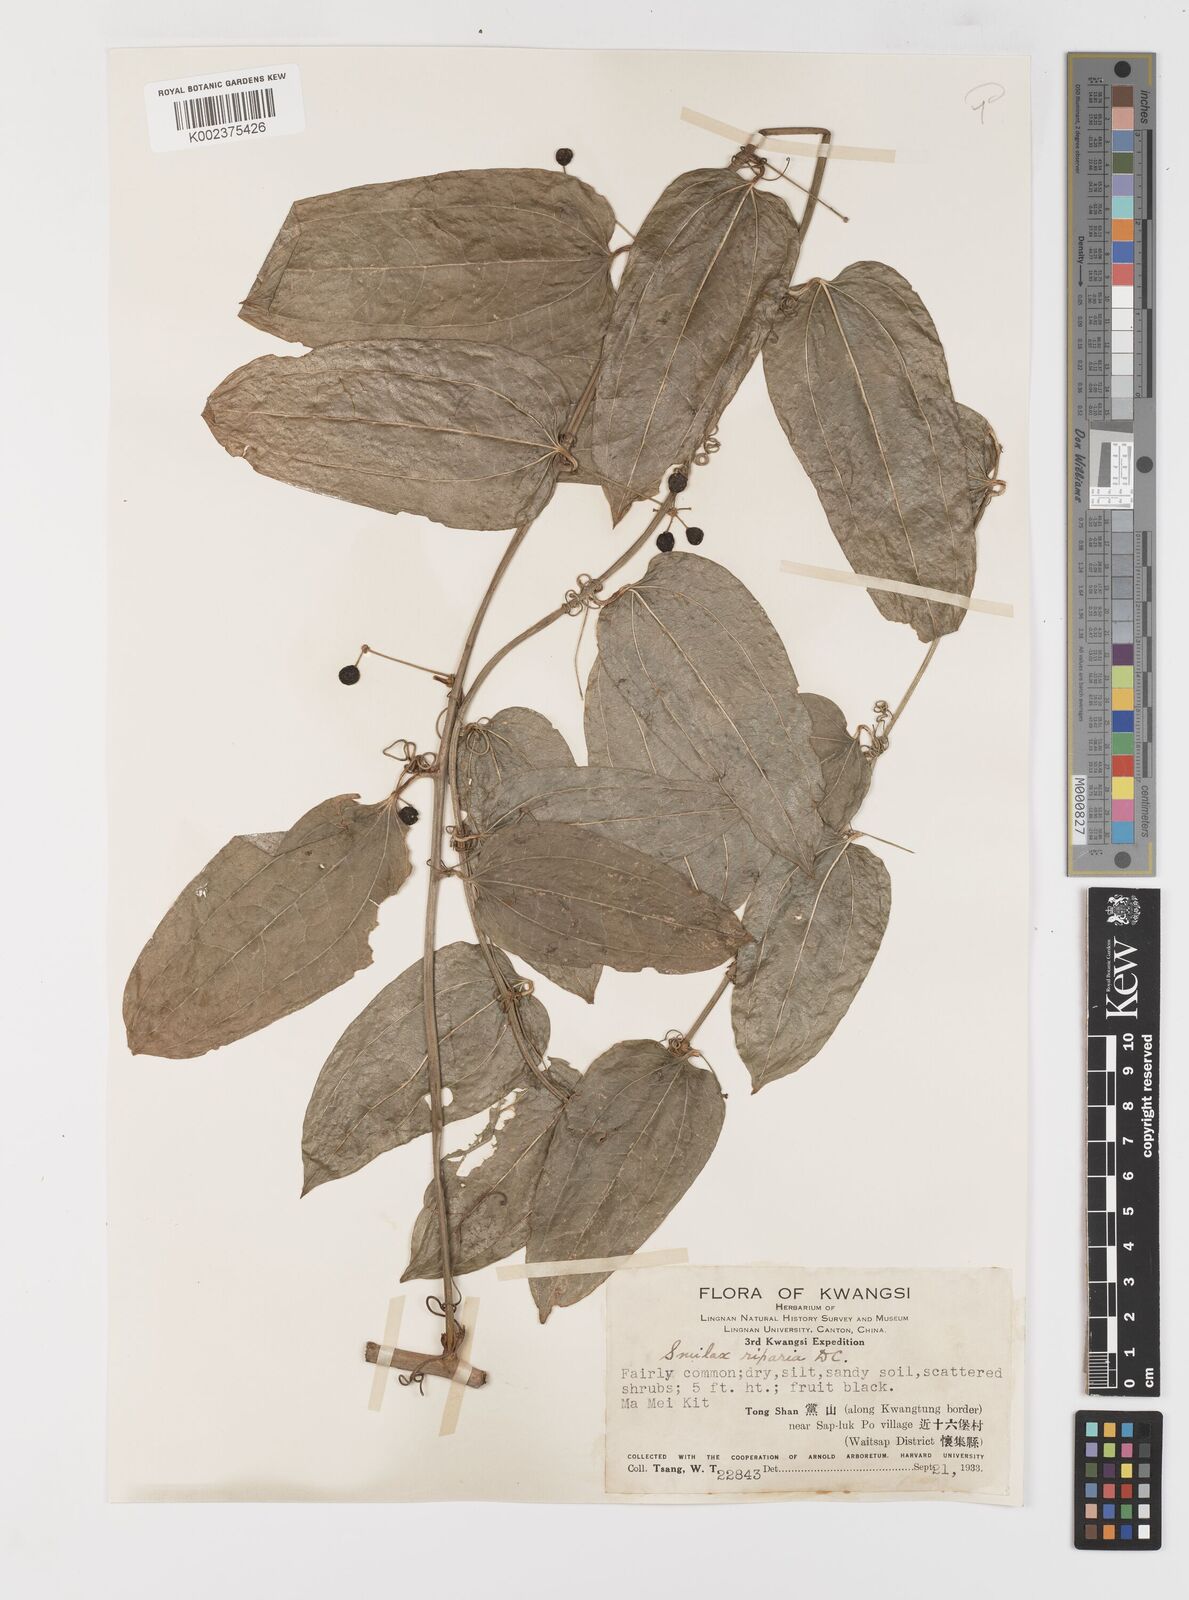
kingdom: Plantae
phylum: Tracheophyta
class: Liliopsida
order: Liliales
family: Smilacaceae
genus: Smilax
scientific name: Smilax riparia
